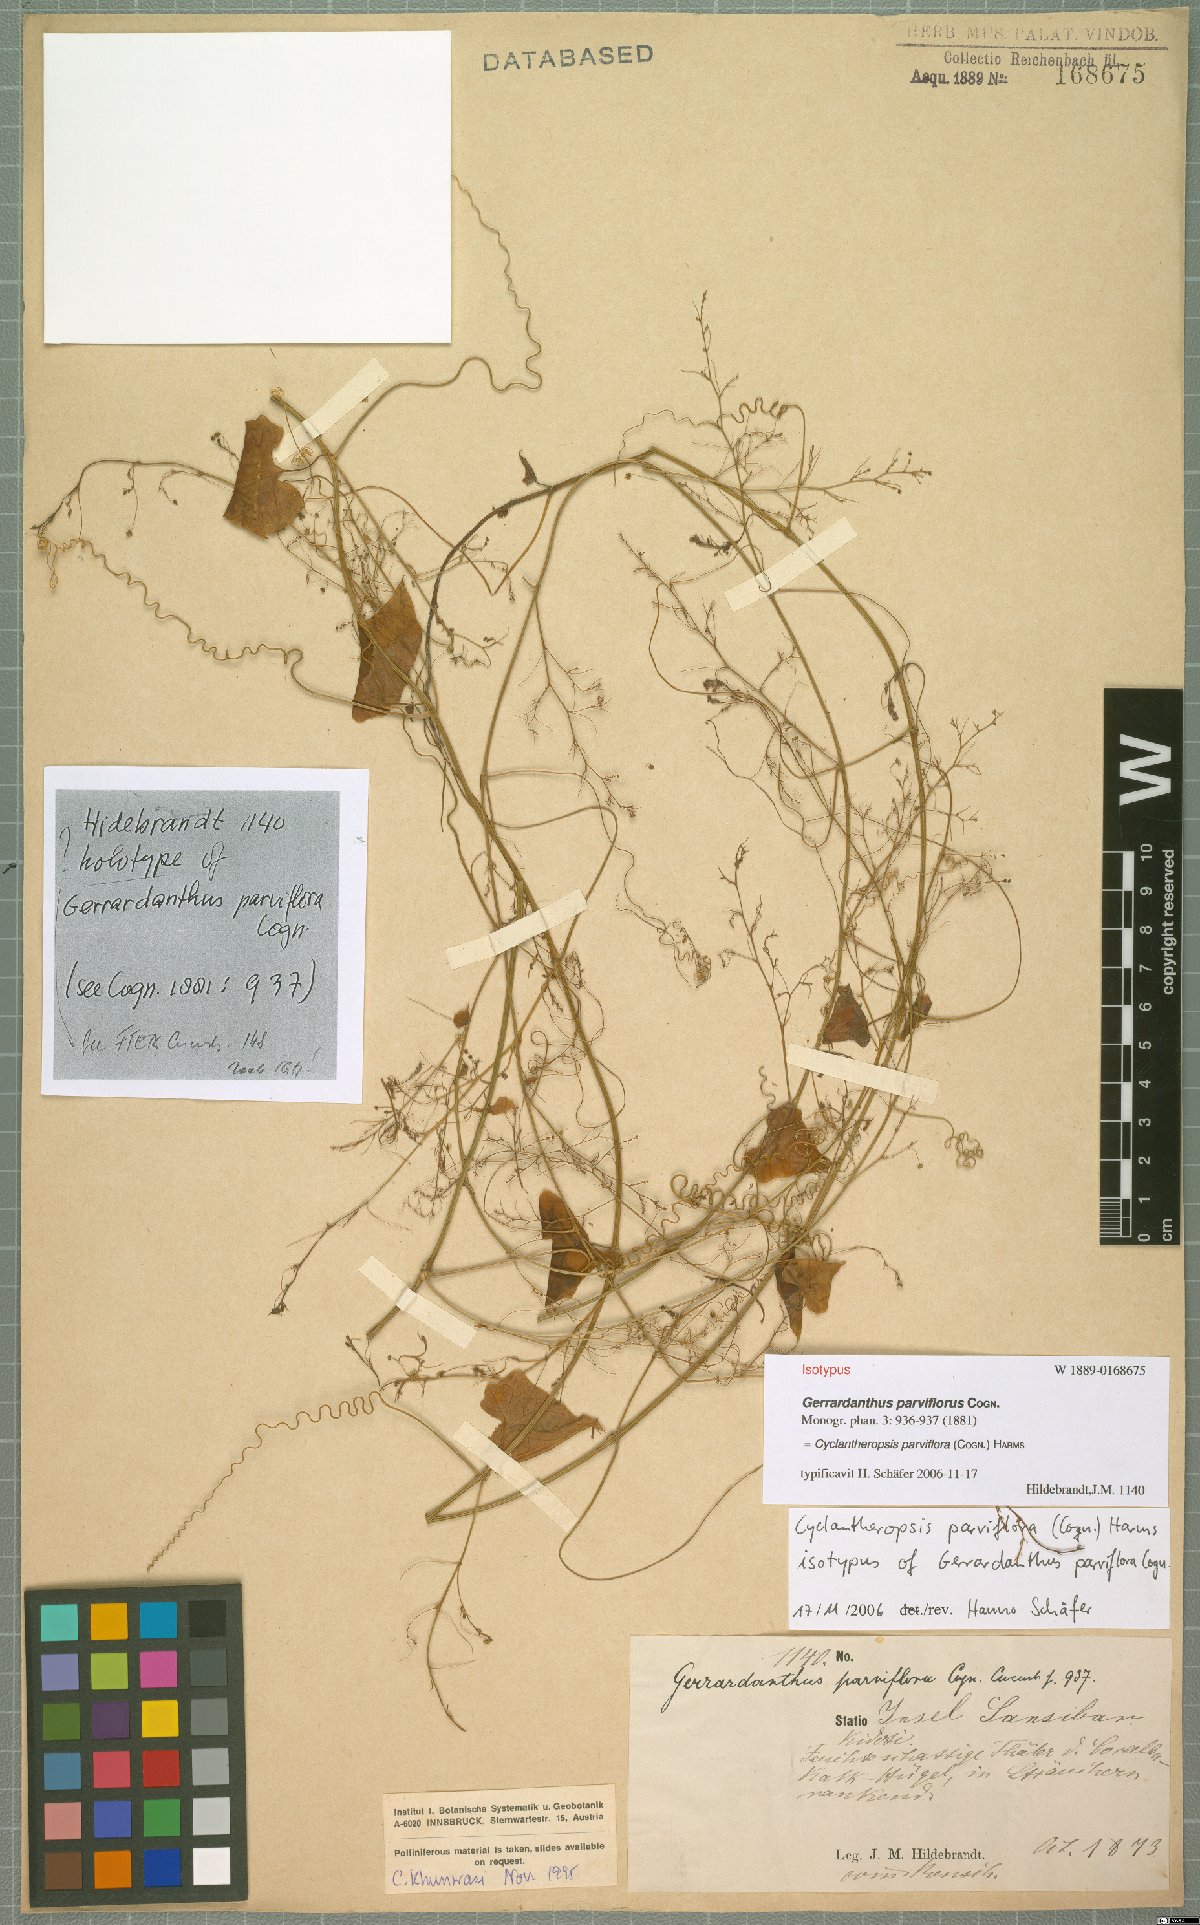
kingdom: Plantae
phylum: Tracheophyta
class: Magnoliopsida
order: Cucurbitales
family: Cucurbitaceae
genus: Cyclantheropsis
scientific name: Cyclantheropsis parviflora
